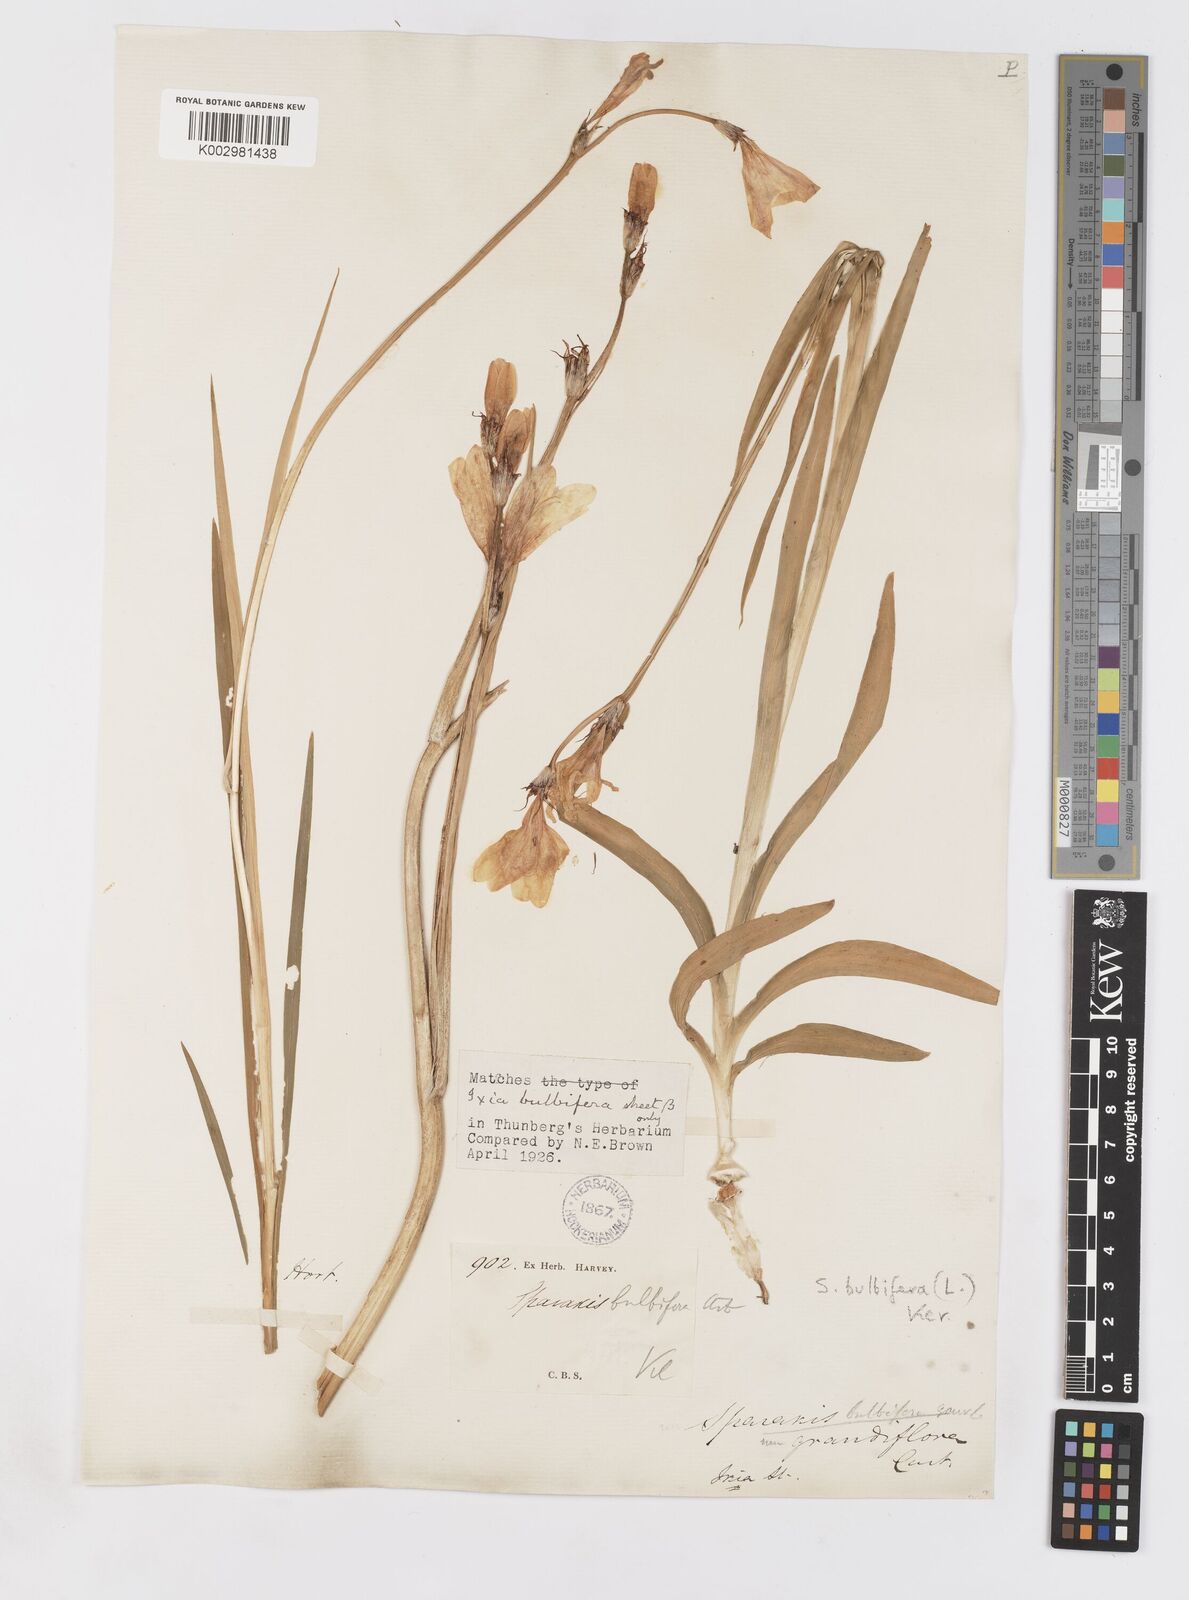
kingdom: Plantae
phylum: Tracheophyta
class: Liliopsida
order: Asparagales
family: Iridaceae
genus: Sparaxis
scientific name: Sparaxis bulbifera
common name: Harlequin-flower
